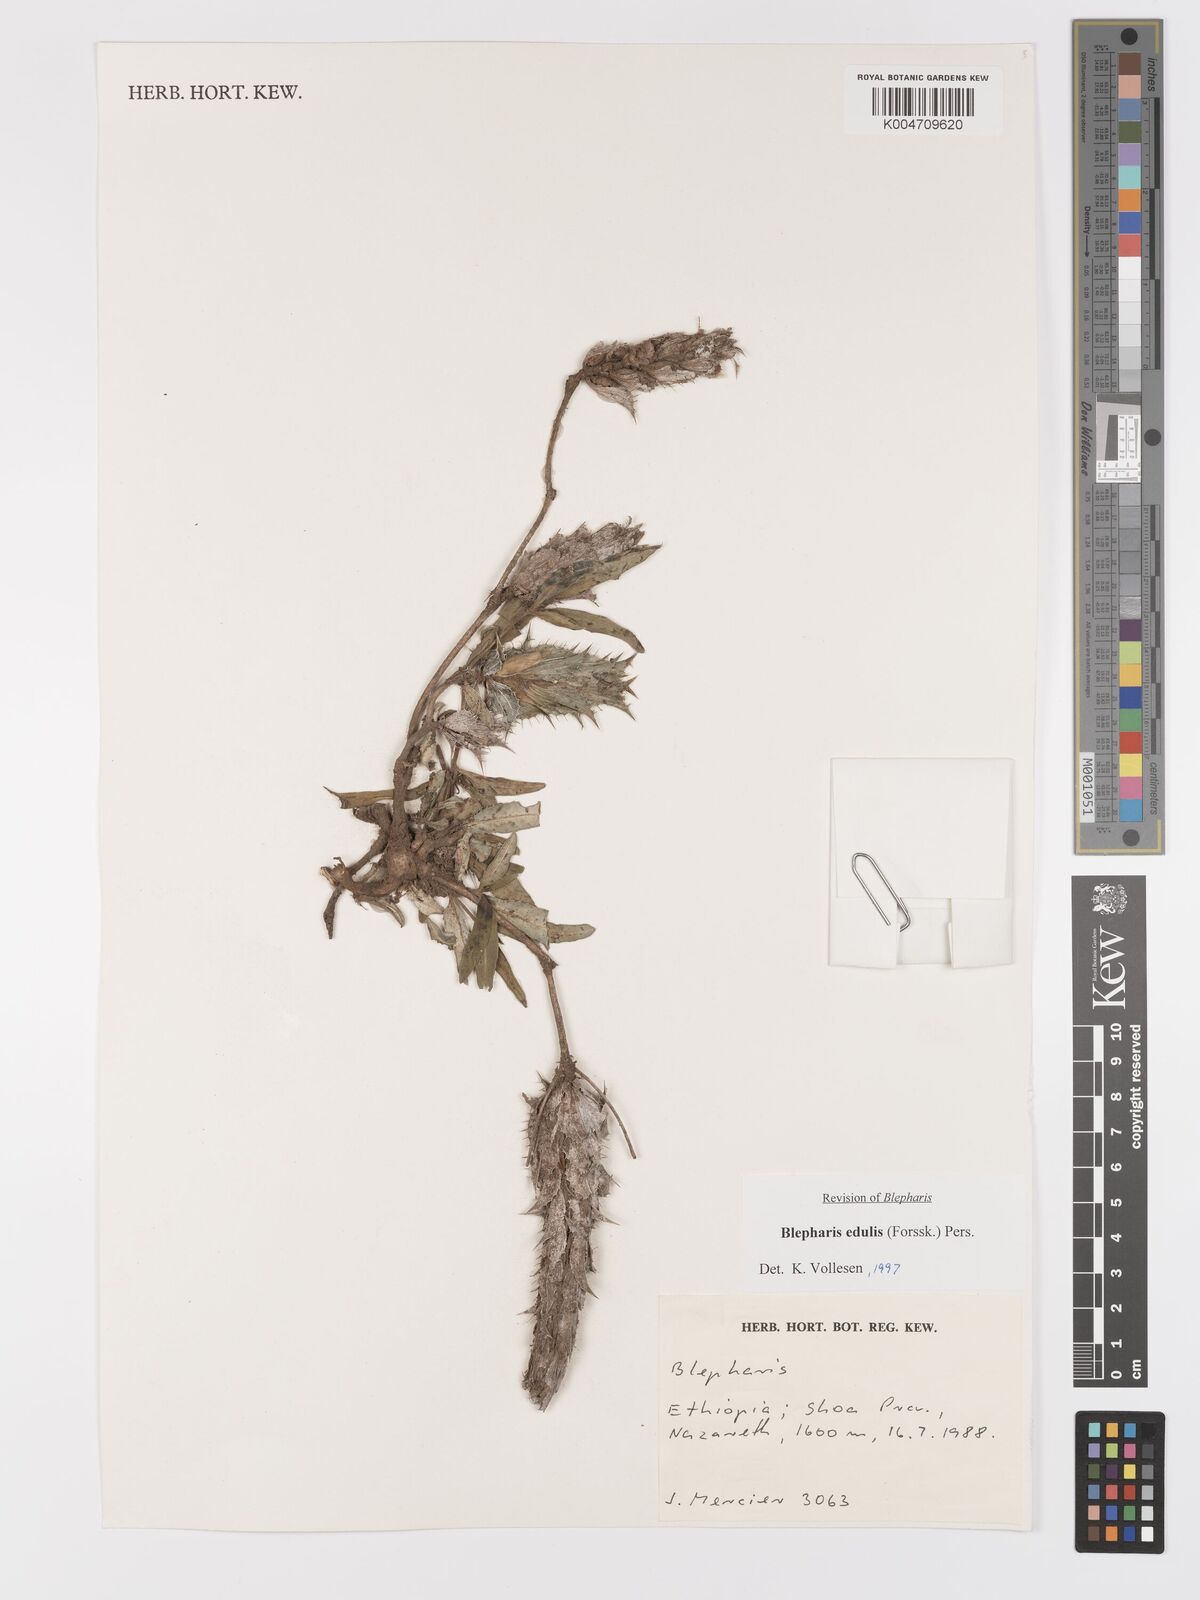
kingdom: Plantae
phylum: Tracheophyta
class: Magnoliopsida
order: Lamiales
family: Acanthaceae
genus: Blepharis
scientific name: Blepharis edulis
